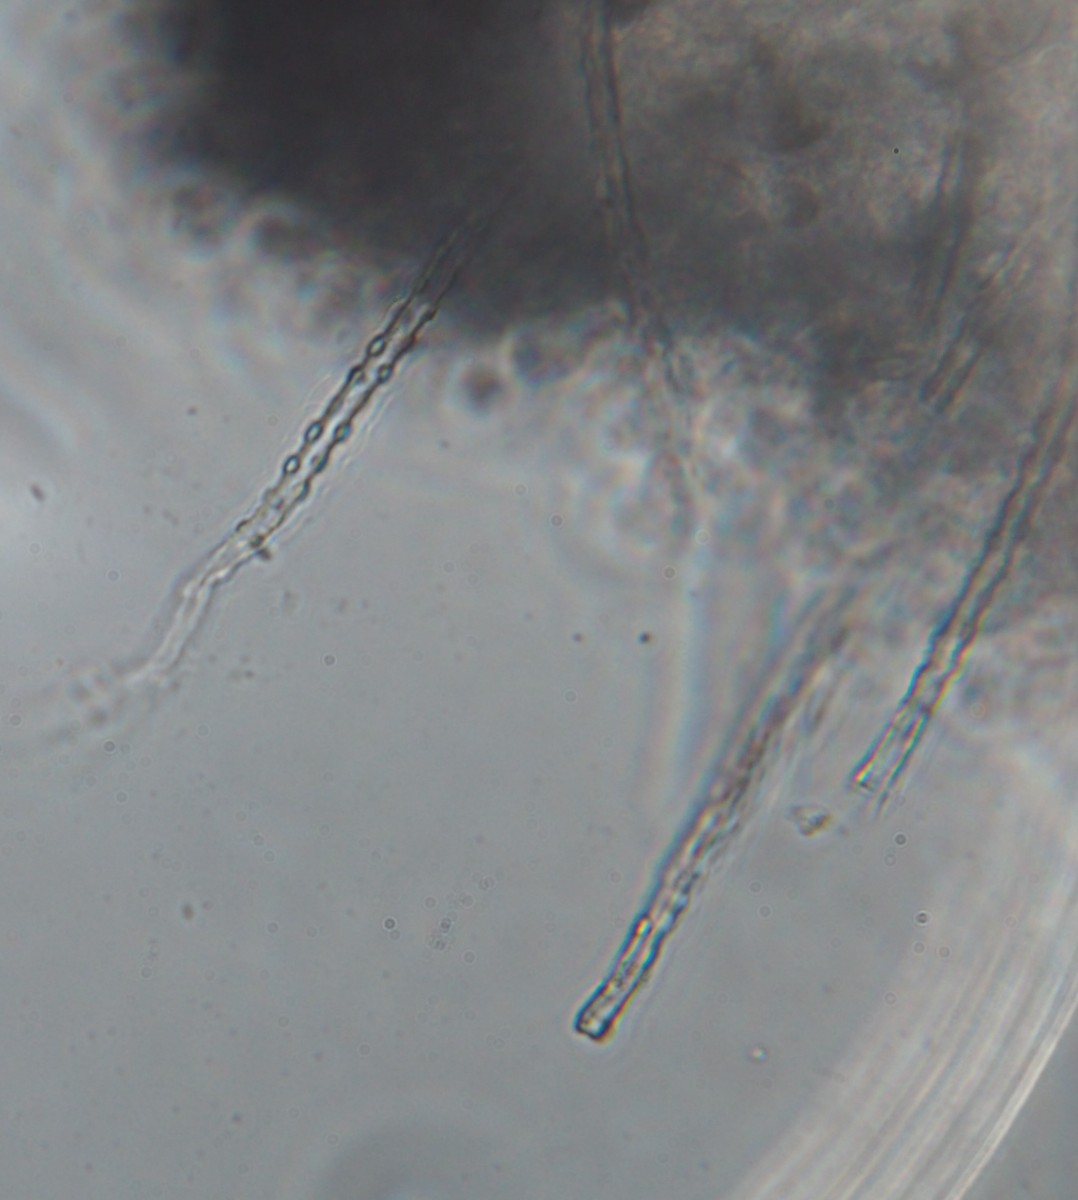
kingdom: Fungi
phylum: Basidiomycota
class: Agaricomycetes
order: Trechisporales
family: Hydnodontaceae
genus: Subulicystidium
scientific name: Subulicystidium longisporum
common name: almindelig pigtrådshinde
